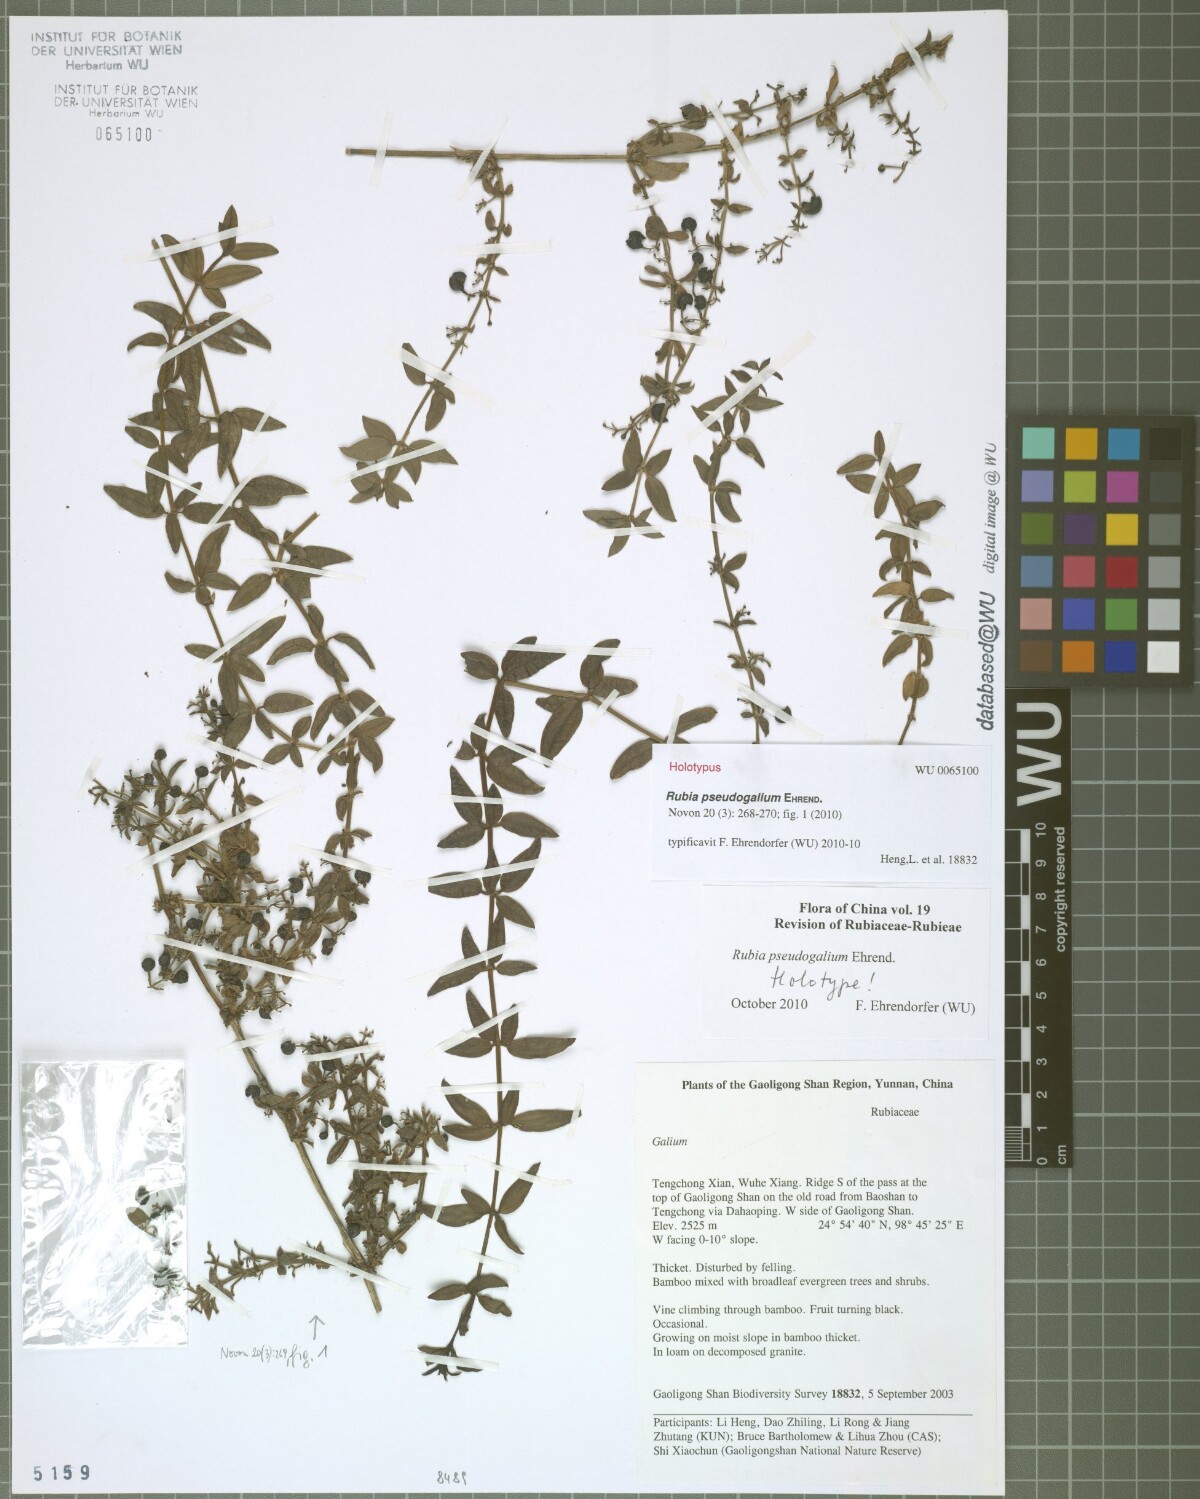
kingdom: Plantae
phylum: Tracheophyta
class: Magnoliopsida
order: Gentianales
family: Rubiaceae
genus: Rubia
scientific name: Rubia pseudogalium
